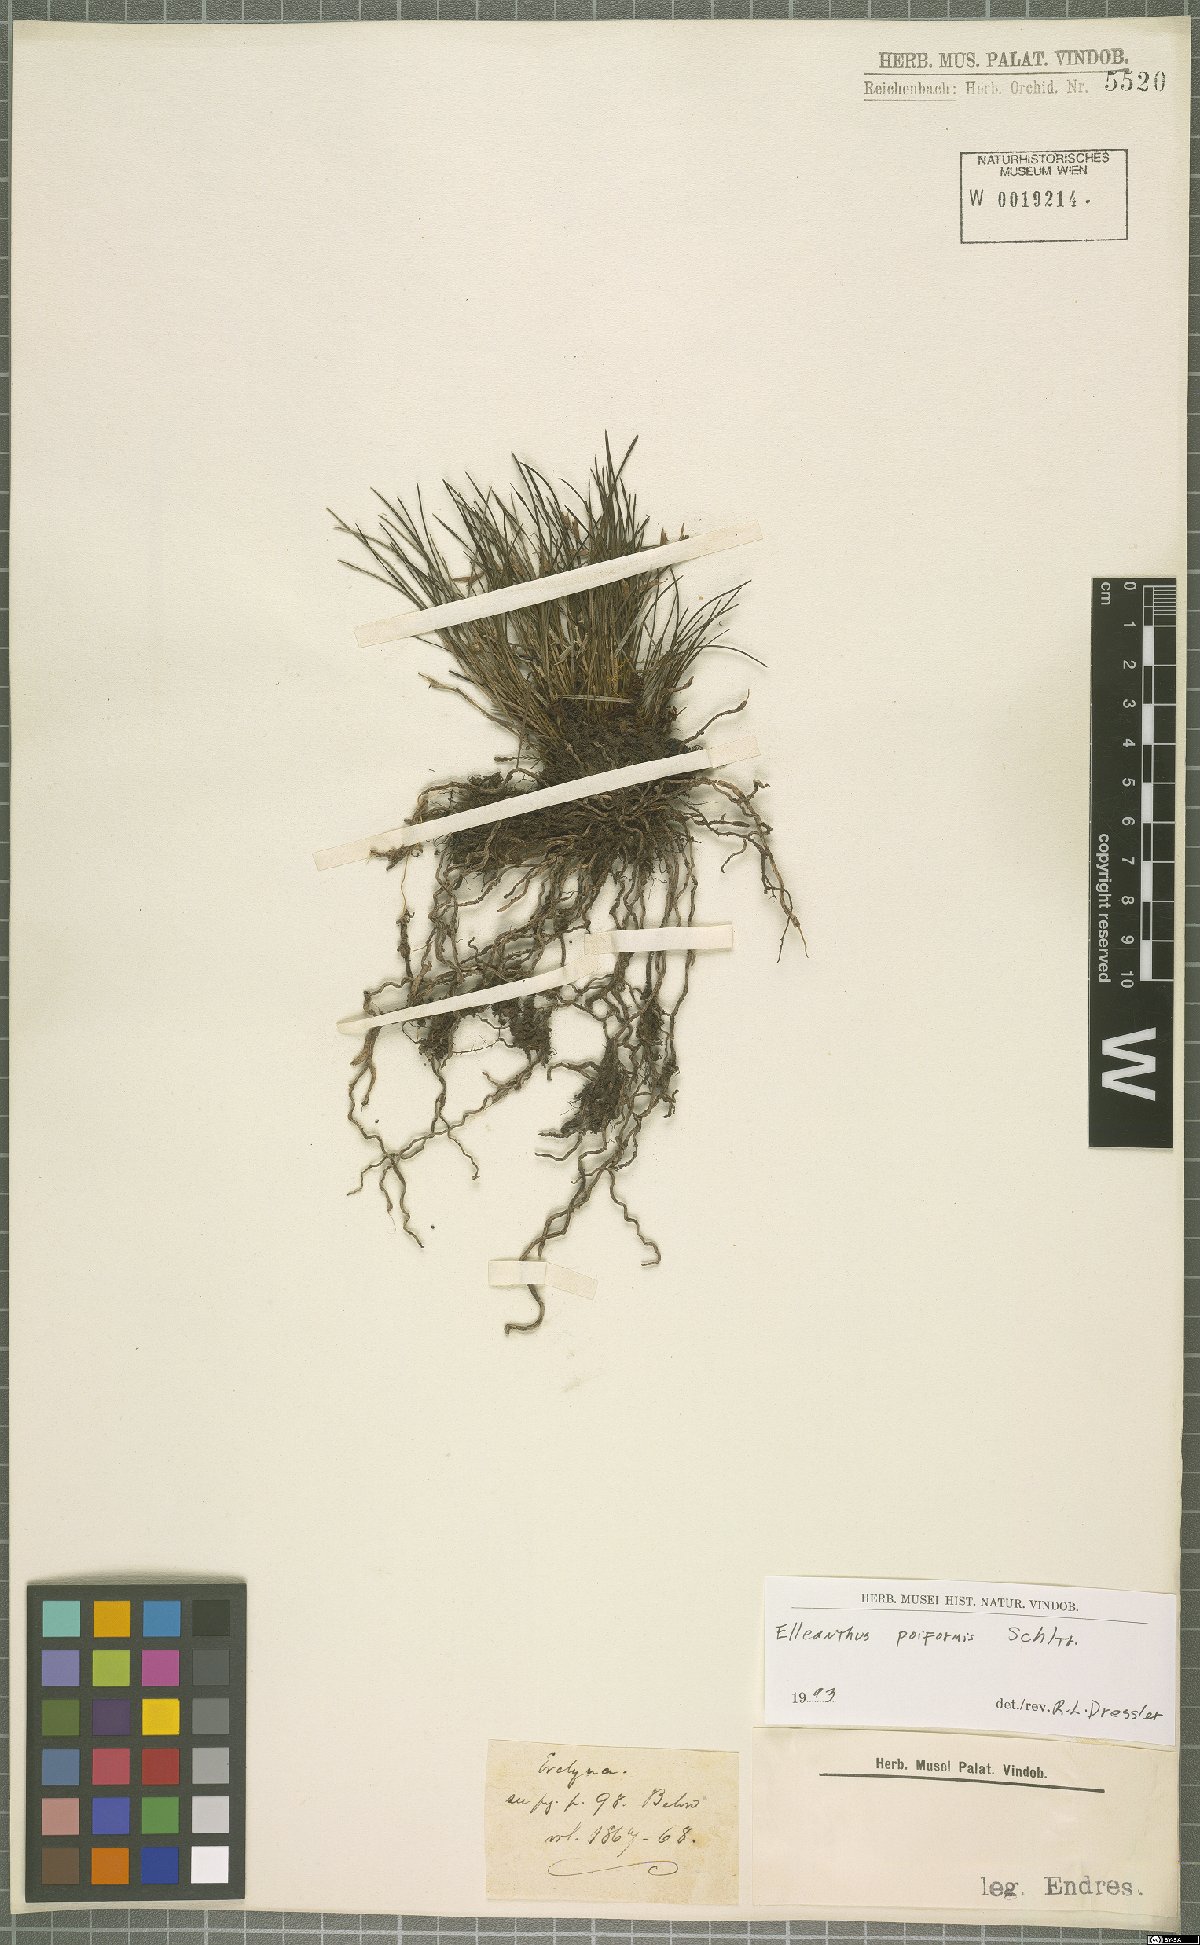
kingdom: Plantae
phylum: Tracheophyta
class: Liliopsida
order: Asparagales
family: Orchidaceae
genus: Elleanthus
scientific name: Elleanthus poiformis
